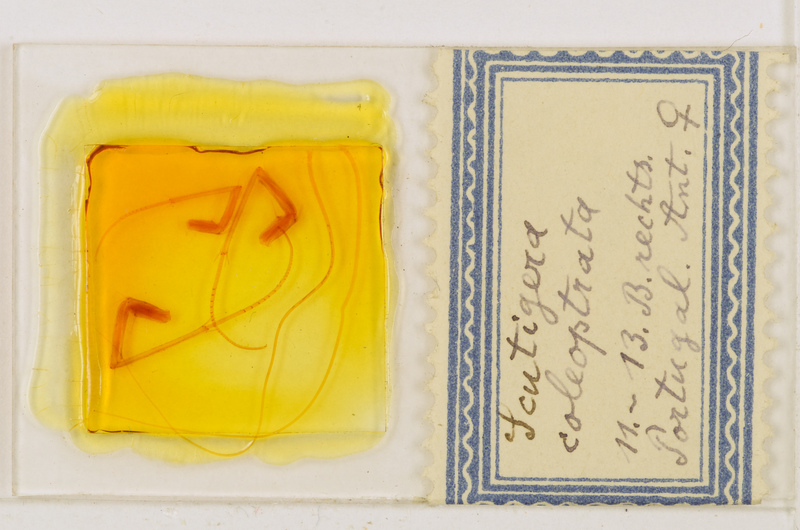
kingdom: Animalia
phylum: Arthropoda
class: Chilopoda
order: Scutigeromorpha
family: Scutigeridae
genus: Scutigera
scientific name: Scutigera coleoptrata
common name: House centipede
